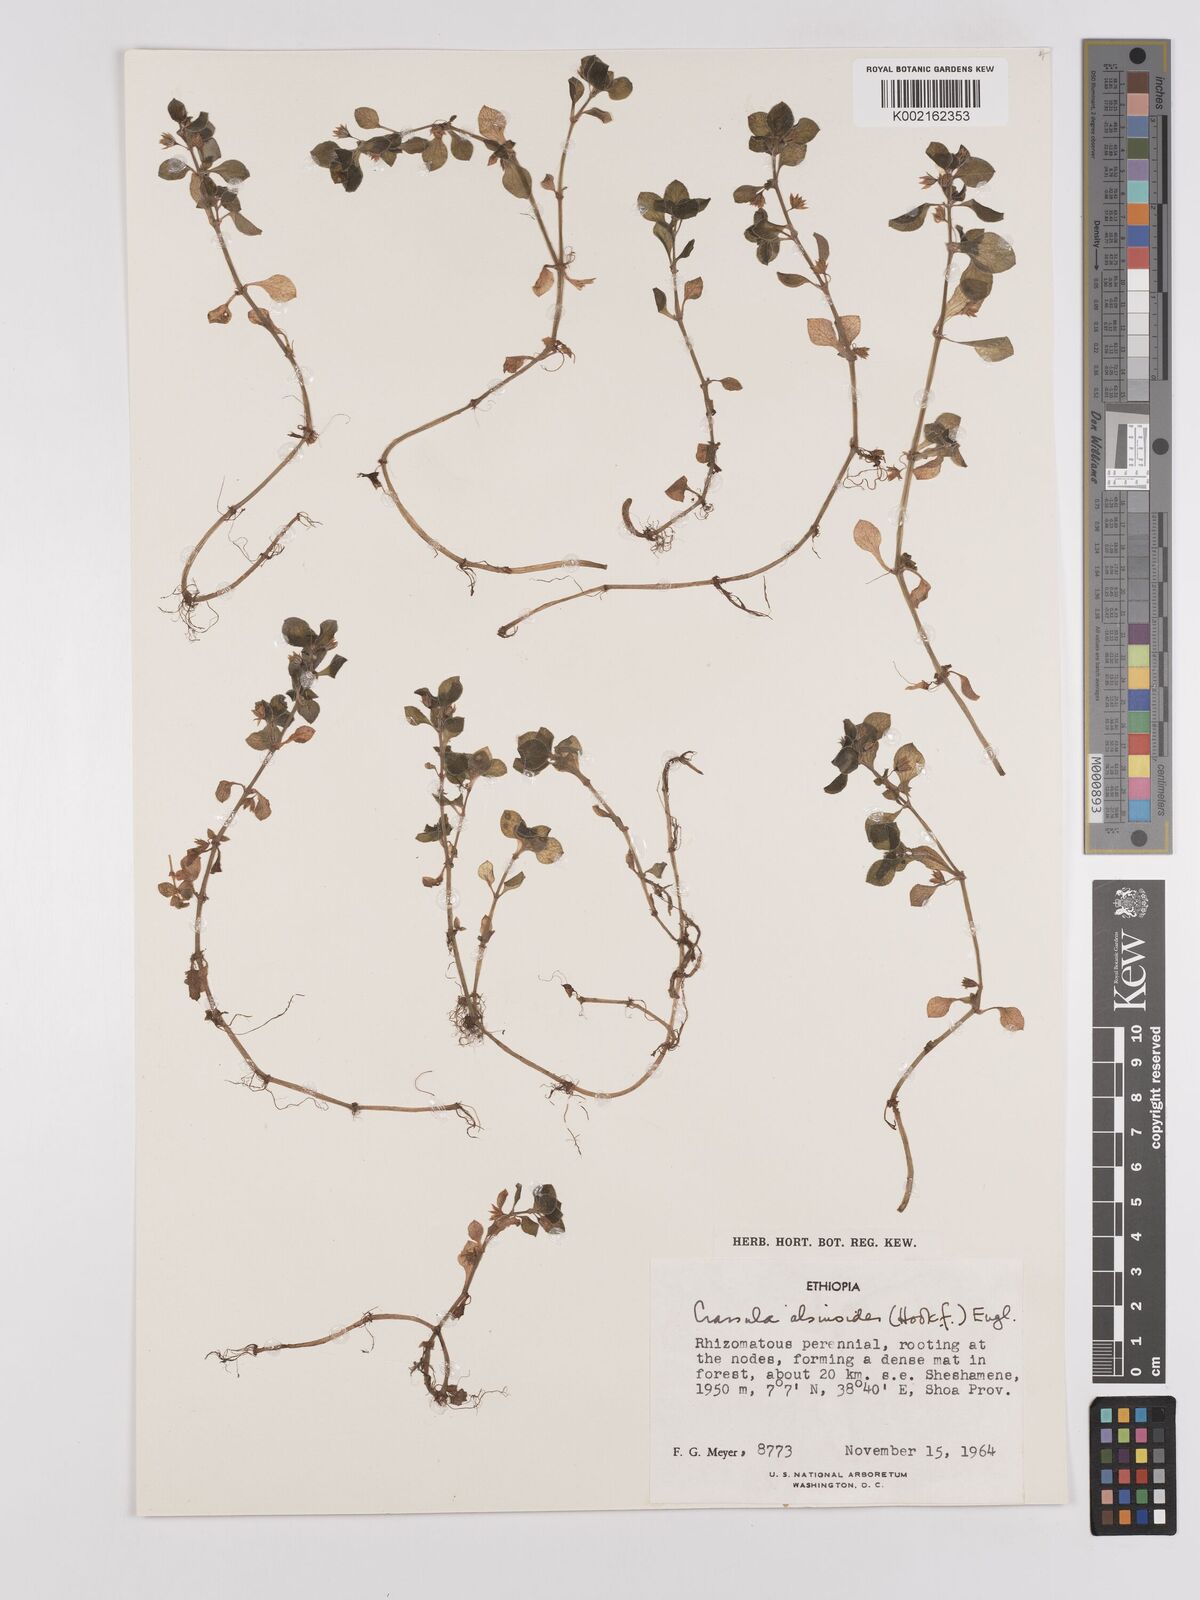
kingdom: Plantae
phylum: Tracheophyta
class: Magnoliopsida
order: Saxifragales
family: Crassulaceae
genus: Crassula
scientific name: Crassula alsinoides
